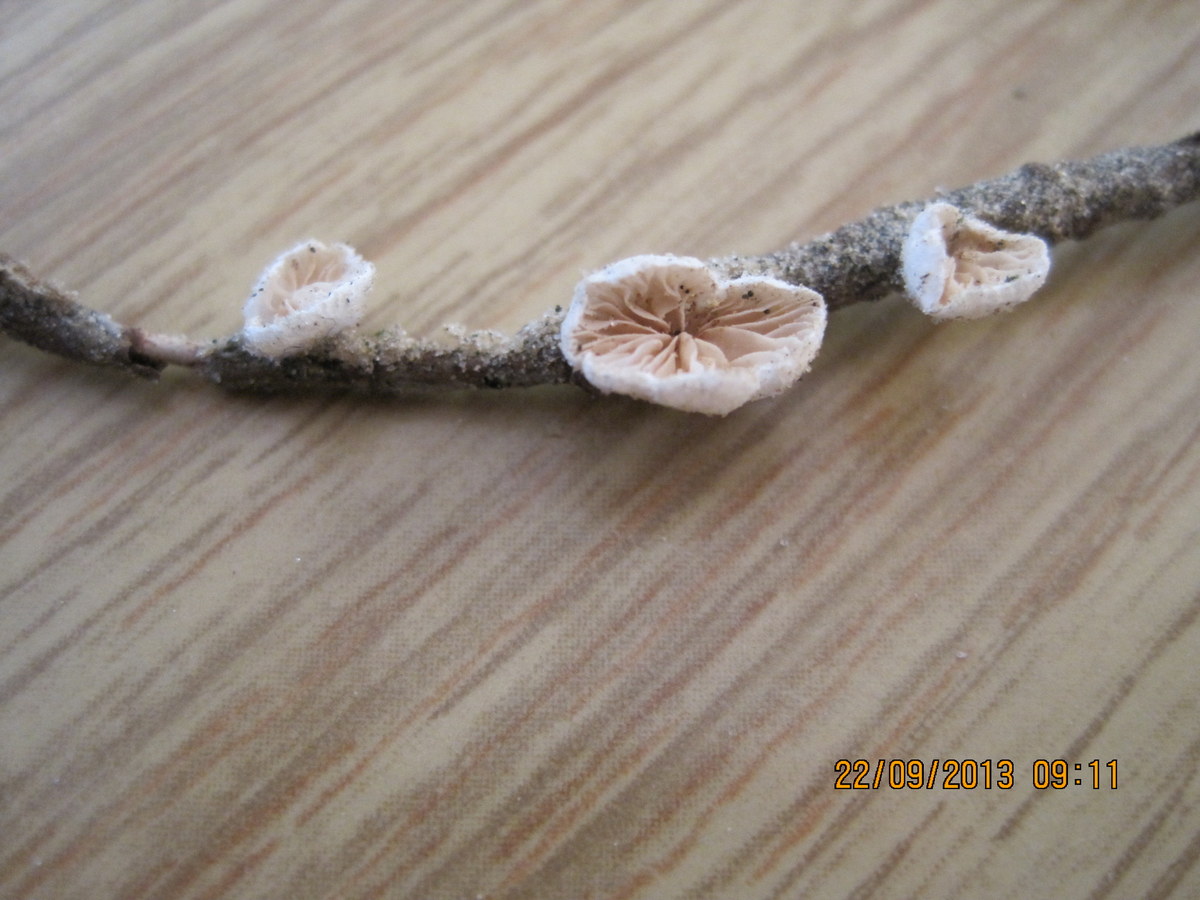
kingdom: Fungi
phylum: Basidiomycota
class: Agaricomycetes
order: Agaricales
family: Crepidotaceae
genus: Crepidotus
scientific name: Crepidotus kubickae
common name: gran-muslingesvamp
